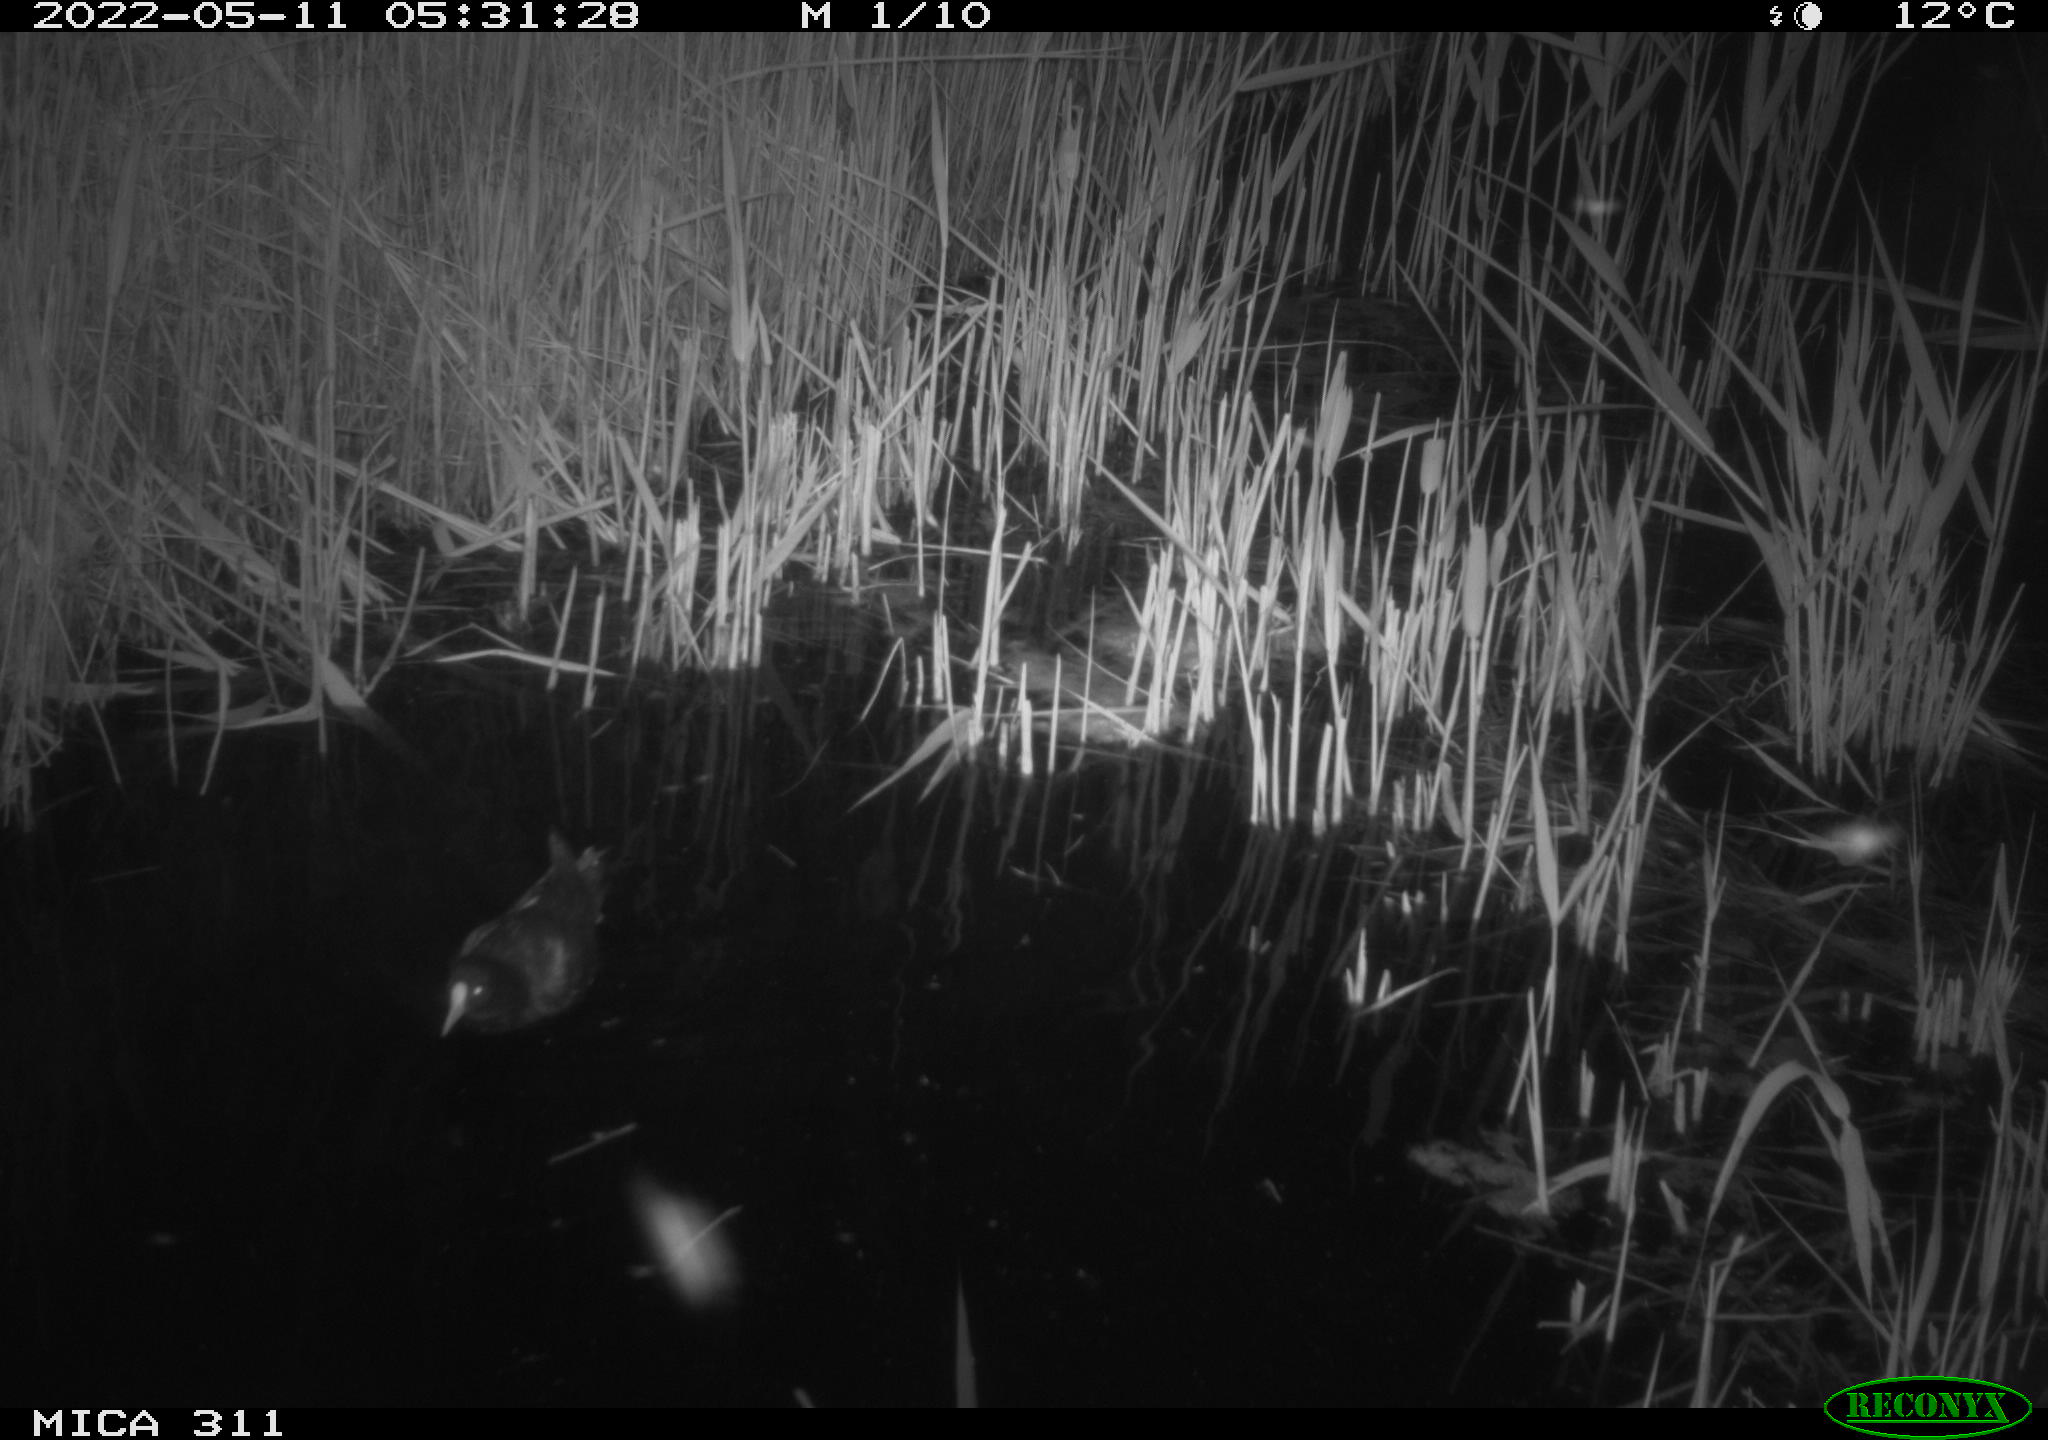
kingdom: Animalia
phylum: Chordata
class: Aves
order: Gruiformes
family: Rallidae
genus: Gallinula
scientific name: Gallinula chloropus
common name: Common moorhen
